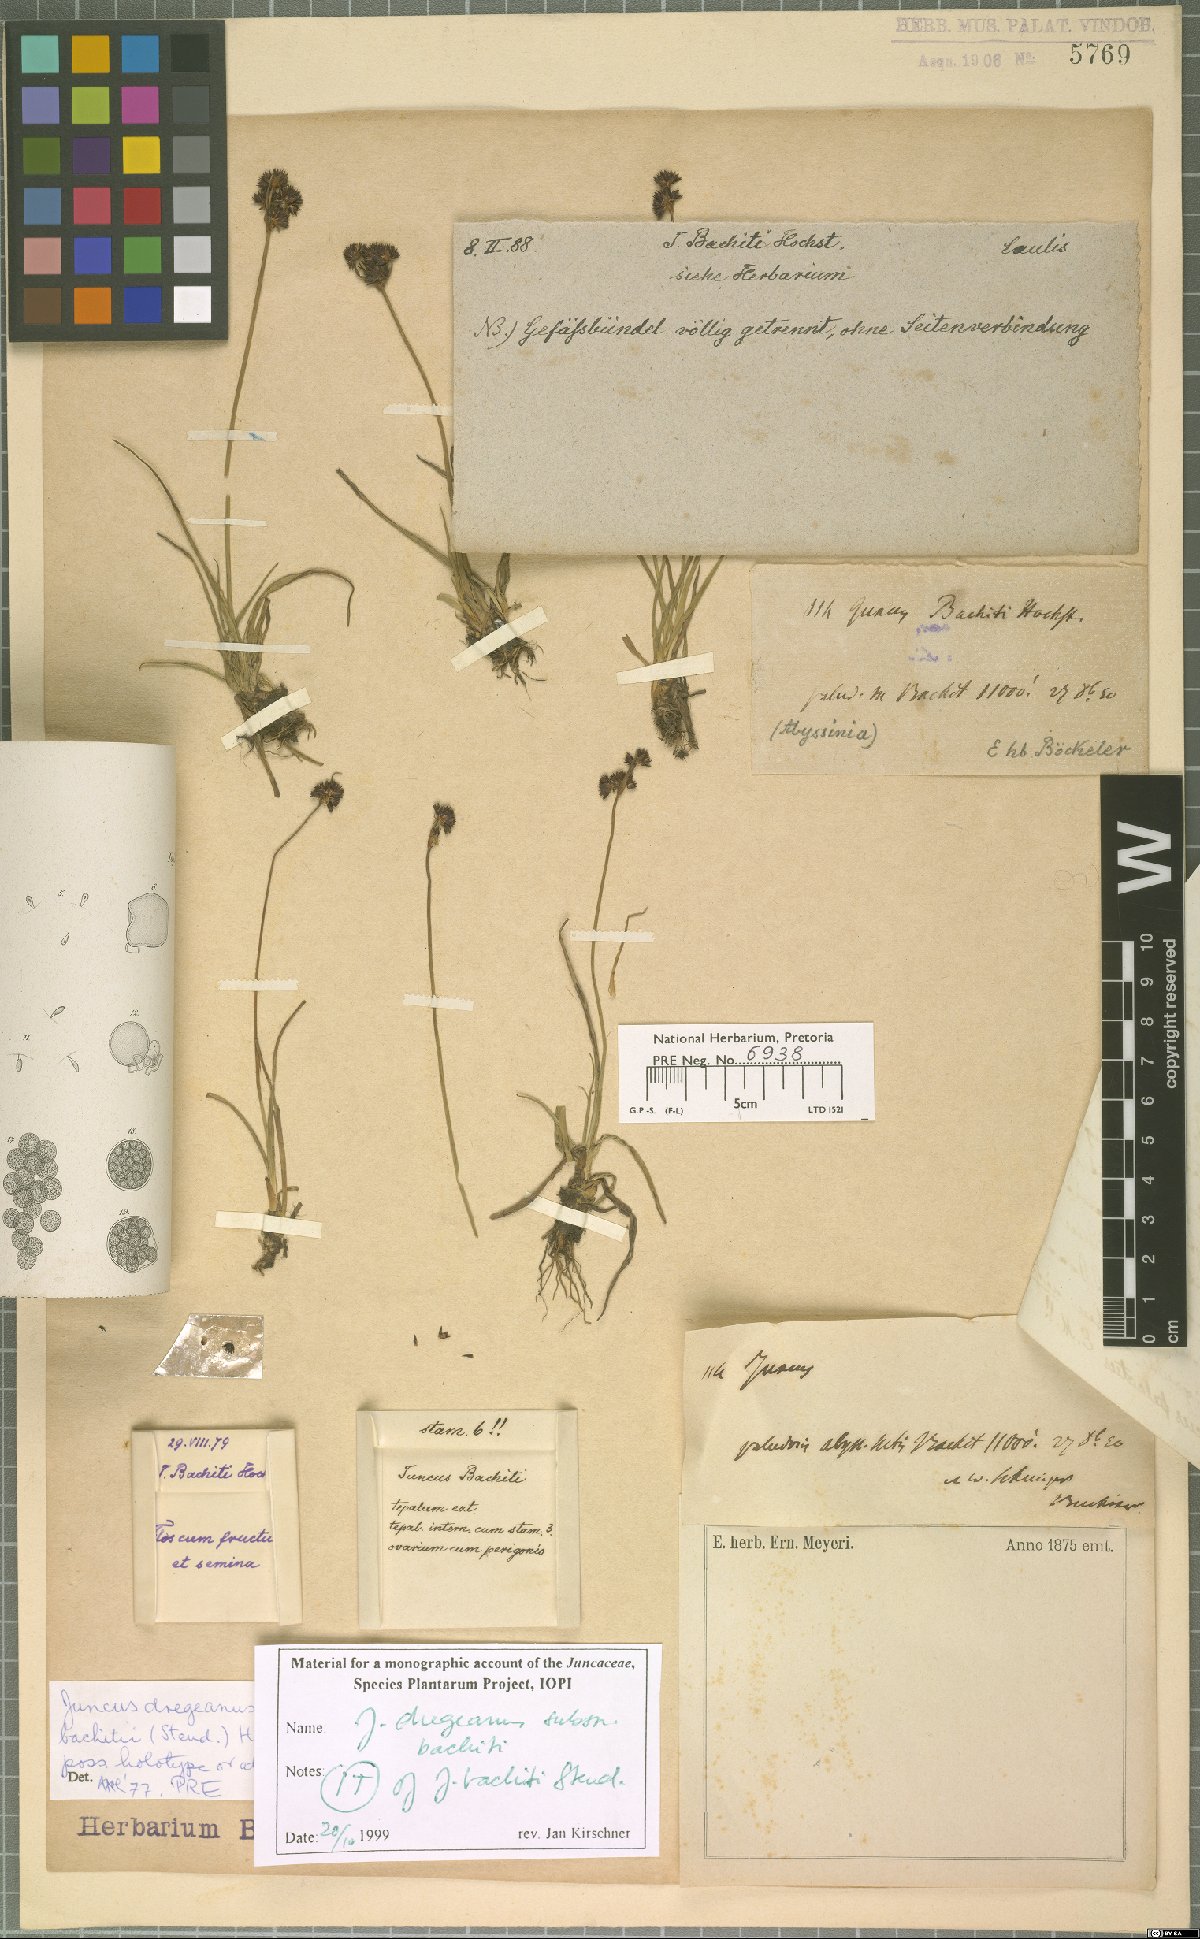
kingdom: Plantae
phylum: Tracheophyta
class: Liliopsida
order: Poales
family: Juncaceae
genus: Juncus
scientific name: Juncus dregeanus
